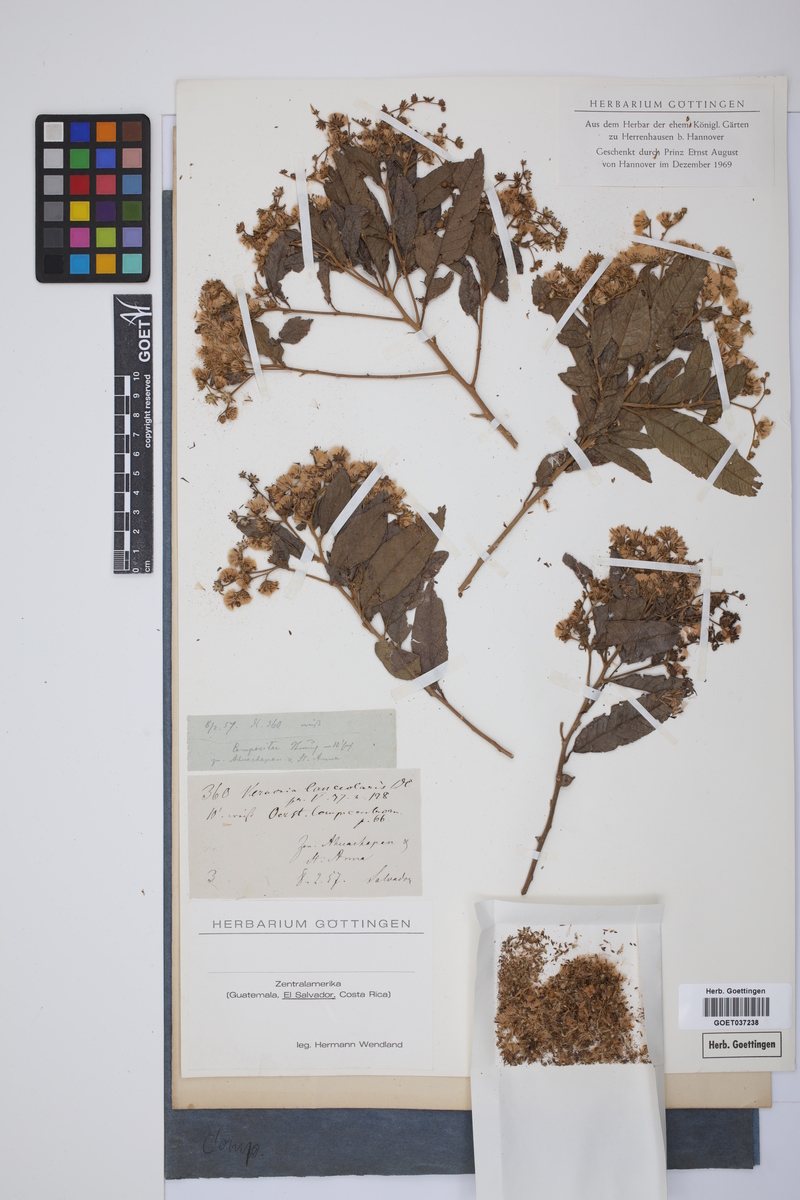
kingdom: Plantae
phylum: Tracheophyta
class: Magnoliopsida
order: Asterales
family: Asteraceae
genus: Vernonanthura
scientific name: Vernonanthura patens
